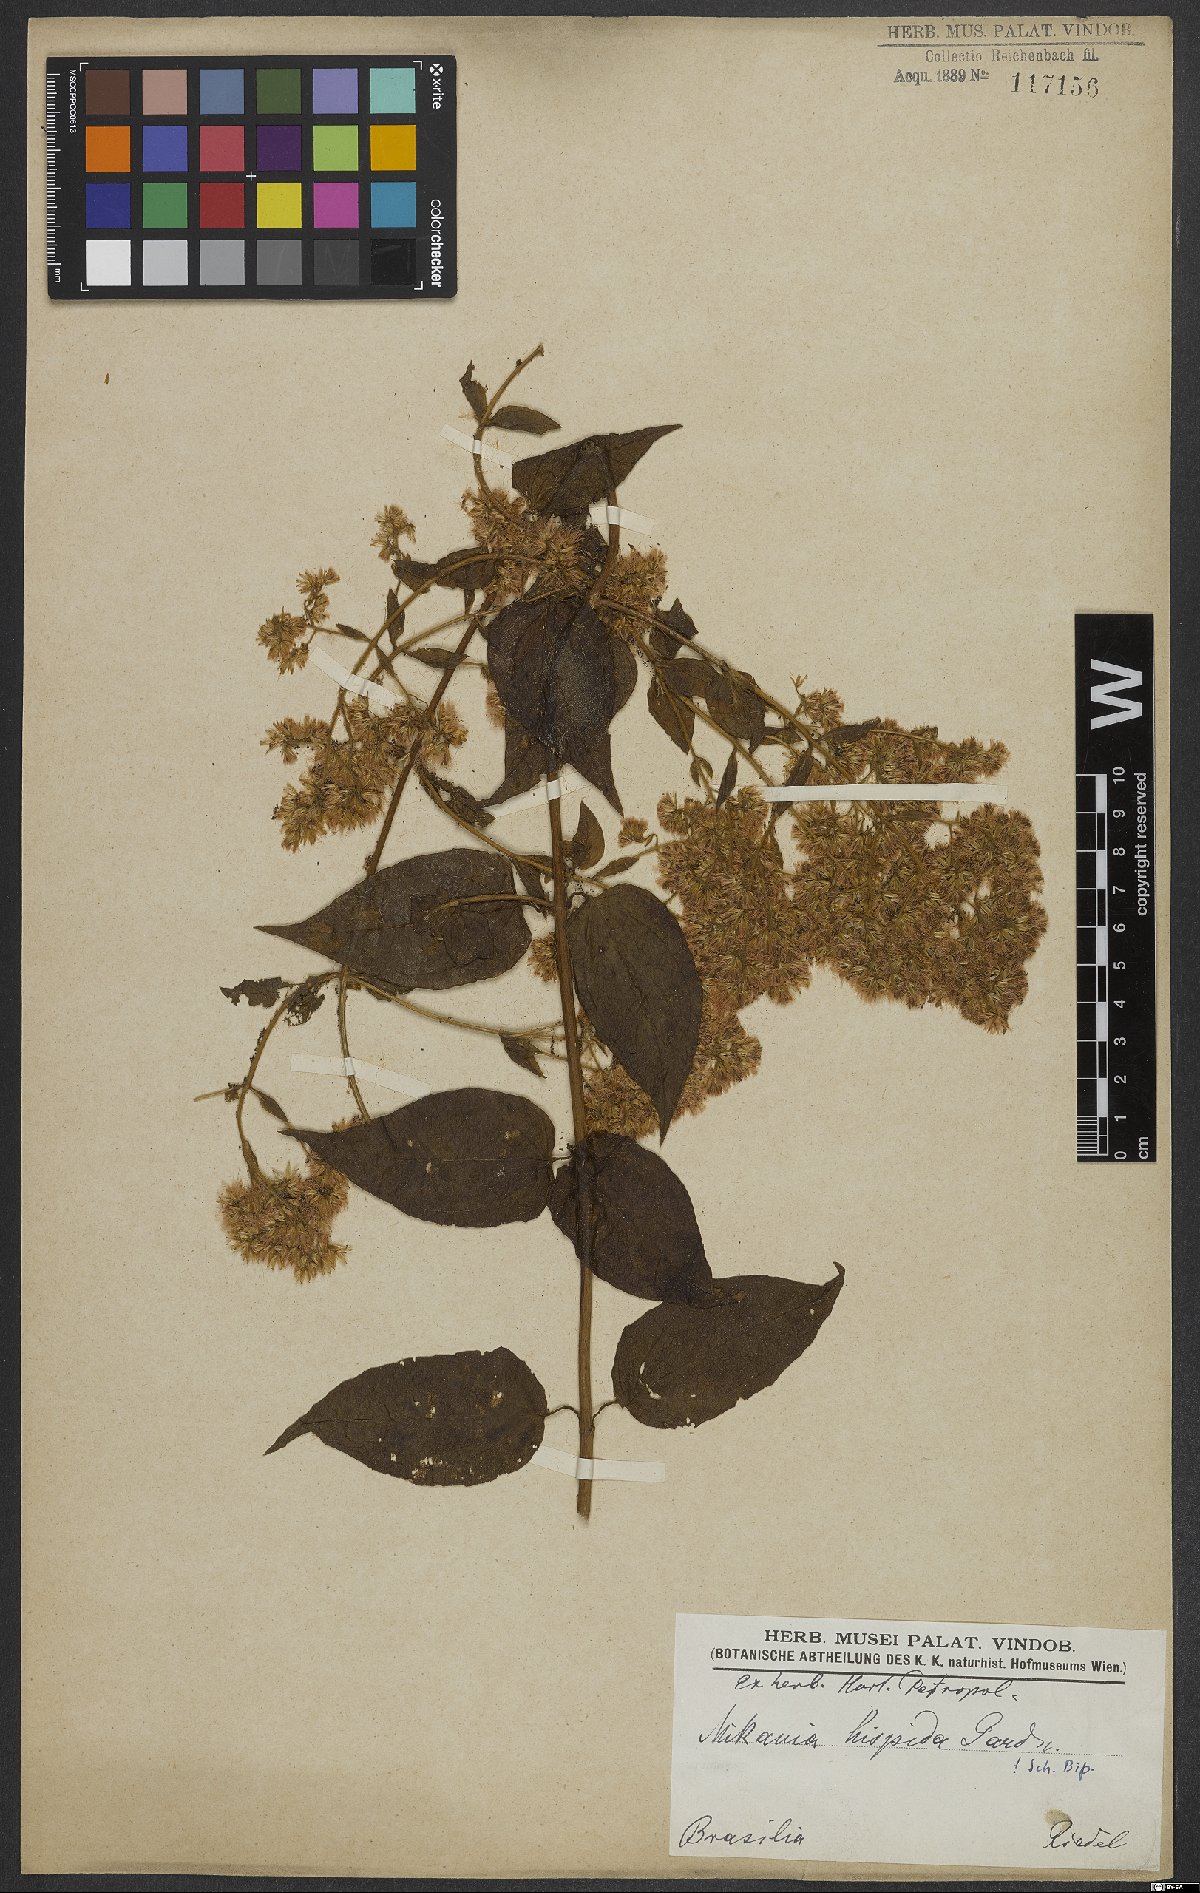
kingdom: Plantae
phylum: Tracheophyta
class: Magnoliopsida
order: Asterales
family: Asteraceae
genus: Mikania
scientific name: Mikania conferta
